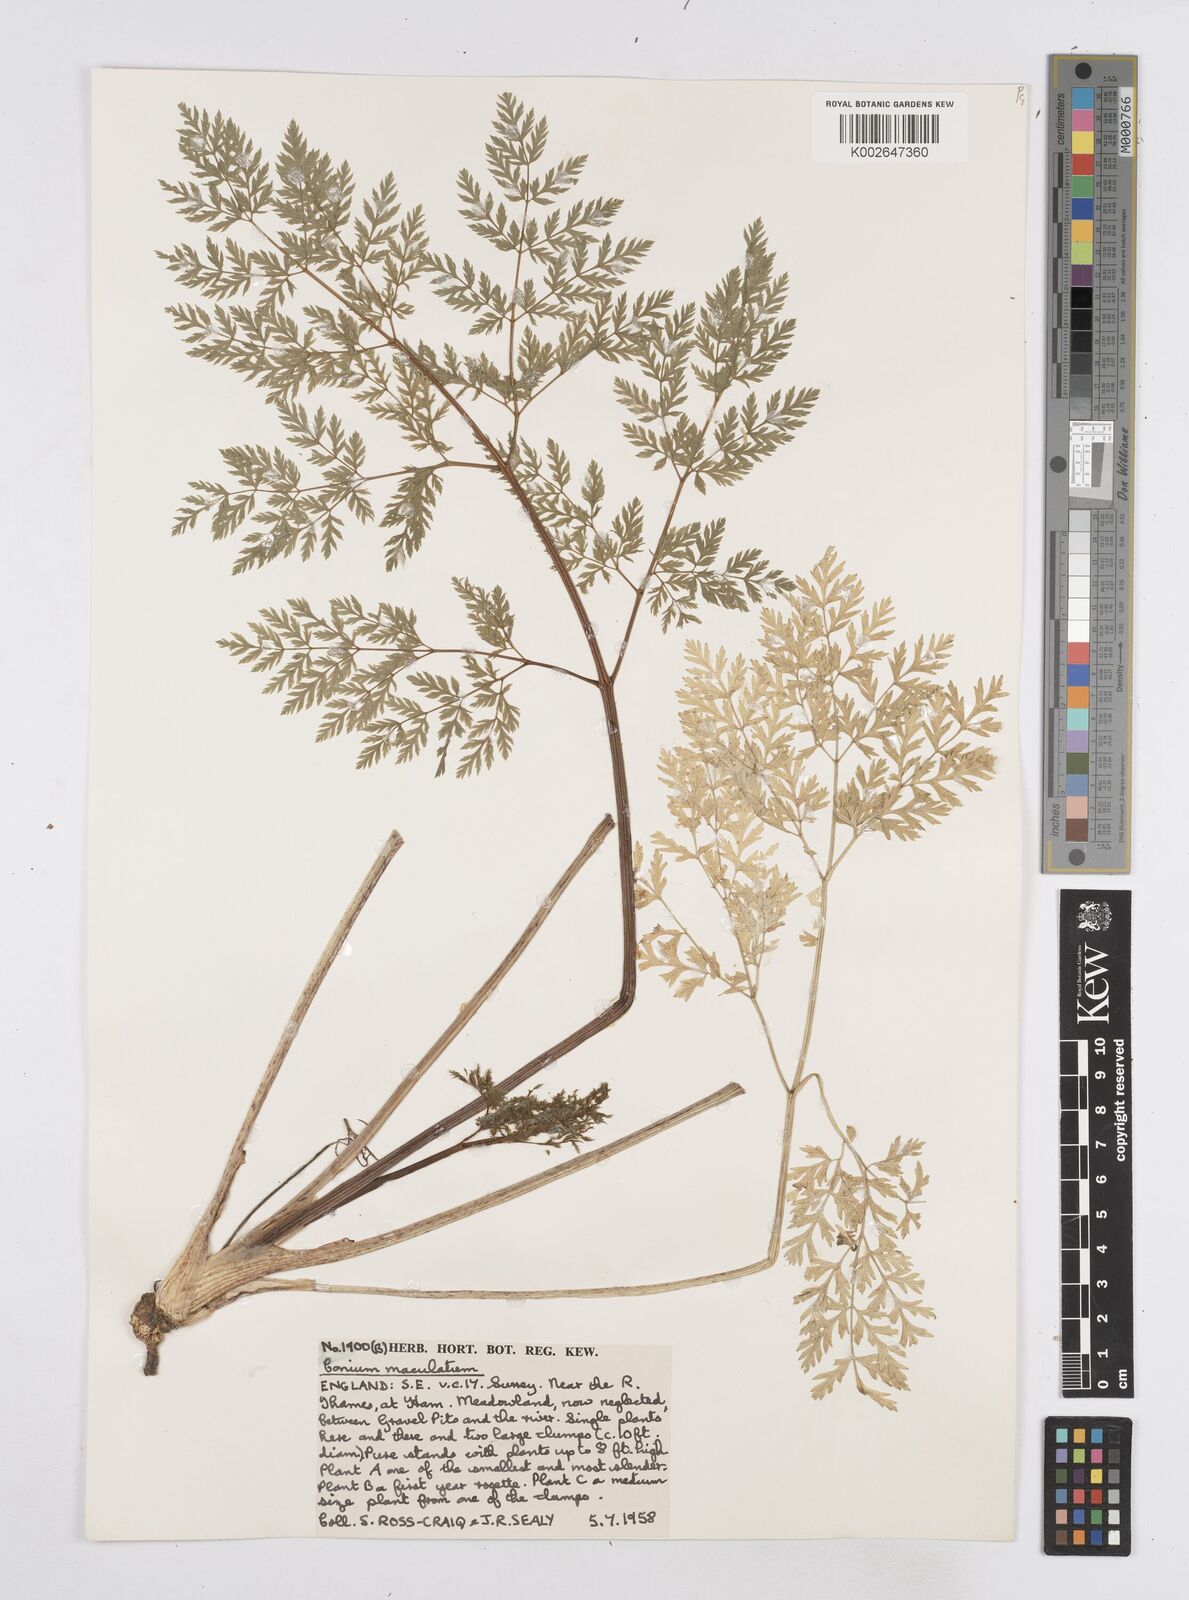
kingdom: Plantae
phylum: Tracheophyta
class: Magnoliopsida
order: Apiales
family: Apiaceae
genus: Conium
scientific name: Conium maculatum
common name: Hemlock
